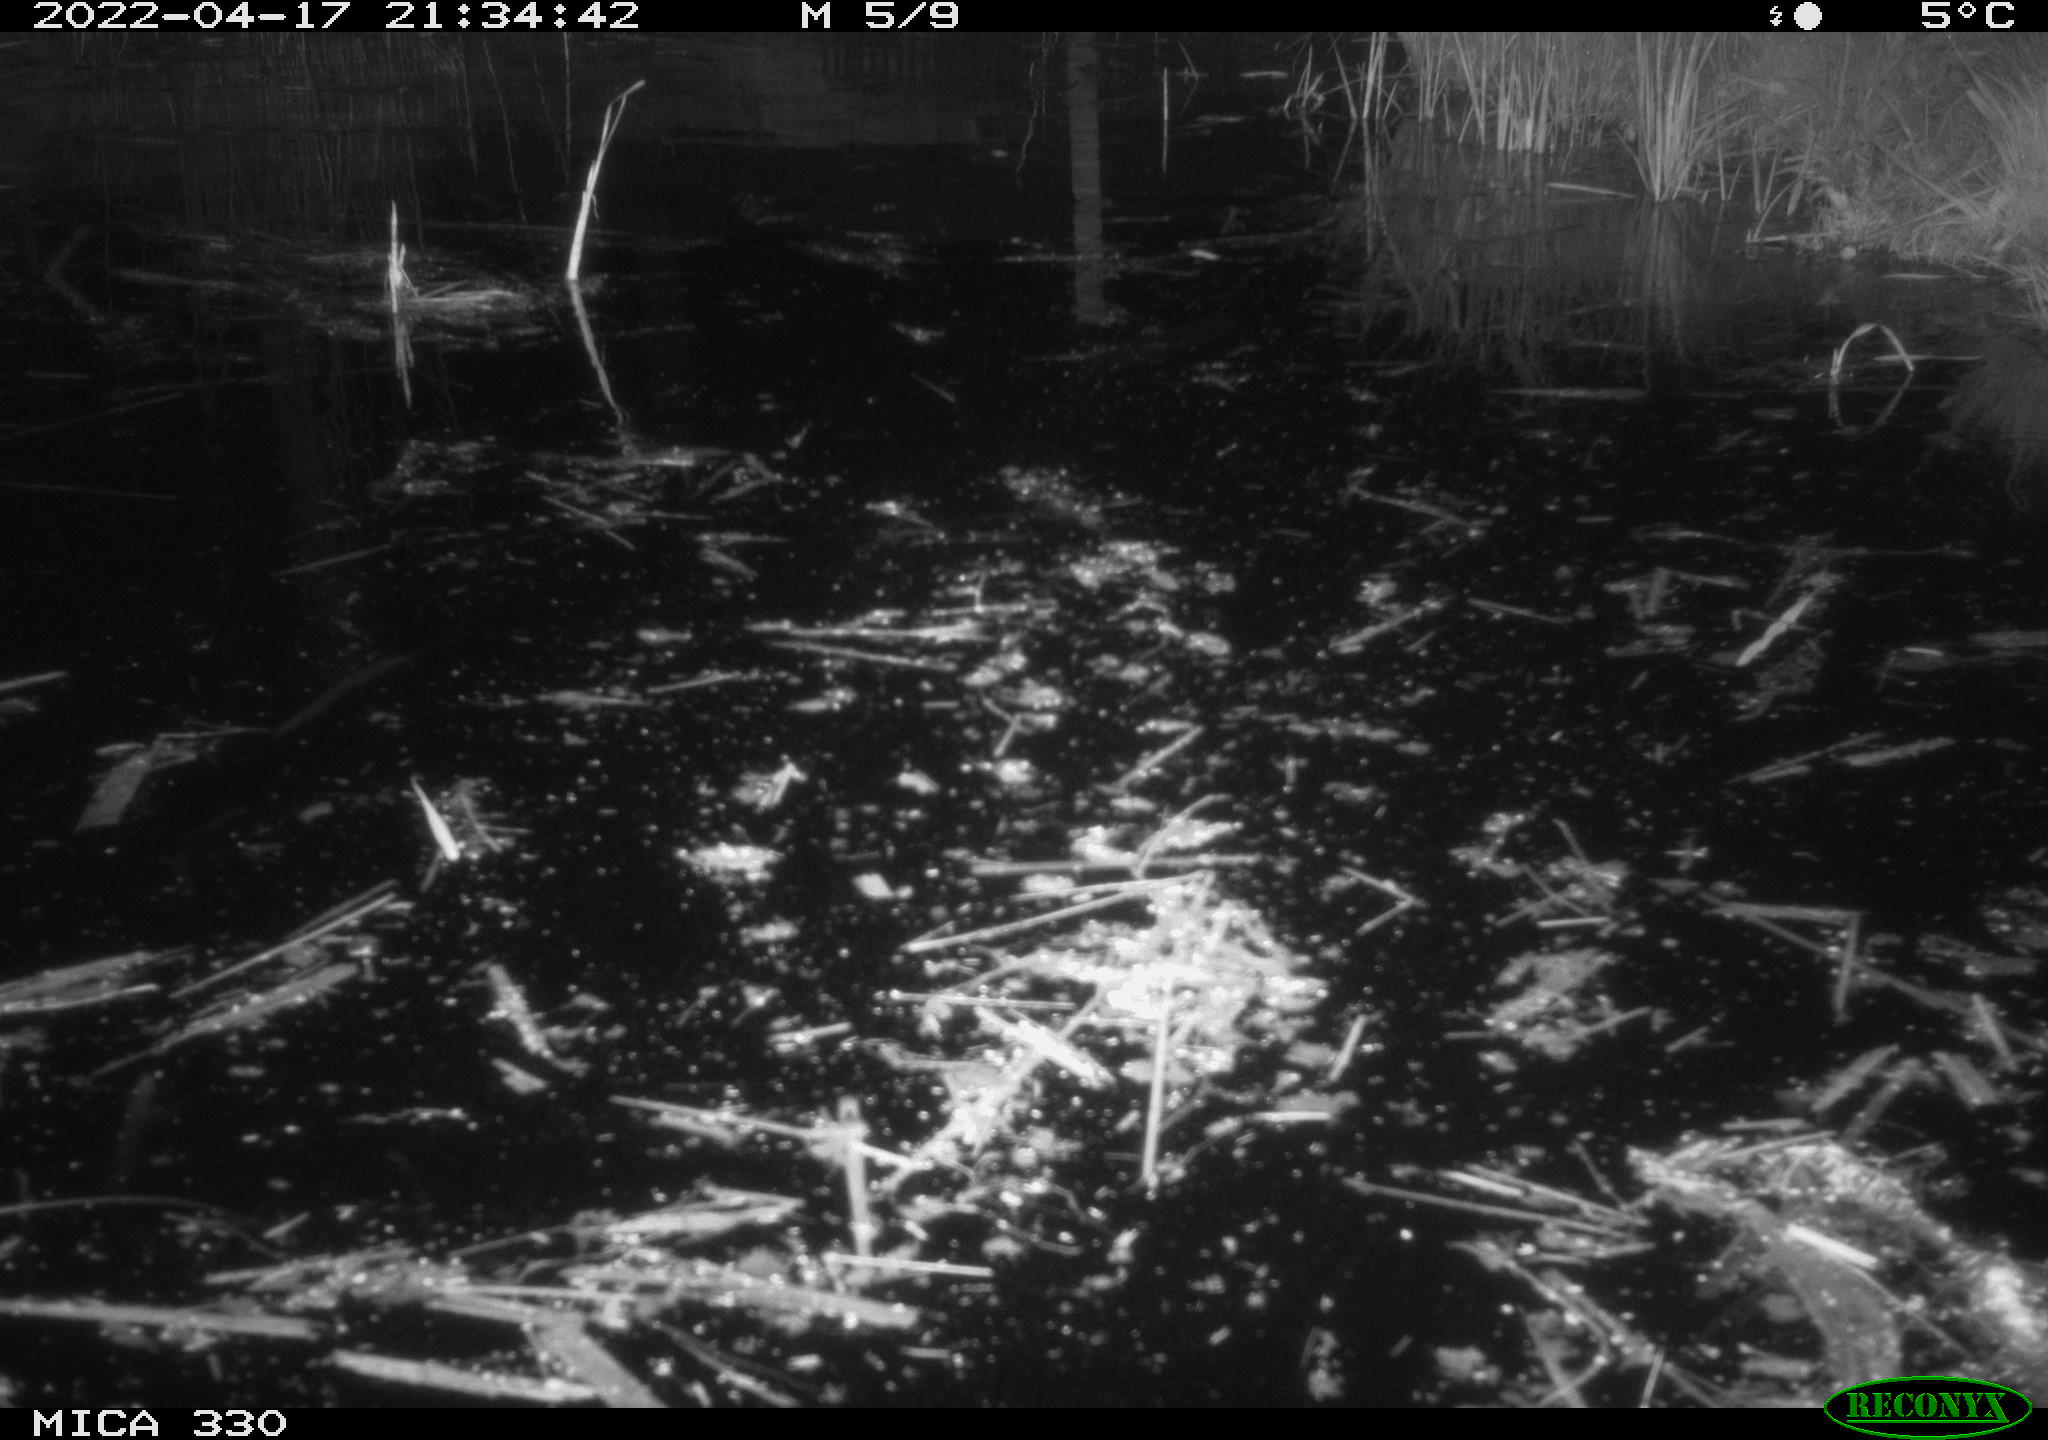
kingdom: Animalia
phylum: Chordata
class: Aves
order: Anseriformes
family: Anatidae
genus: Anas
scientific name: Anas platyrhynchos
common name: Mallard
